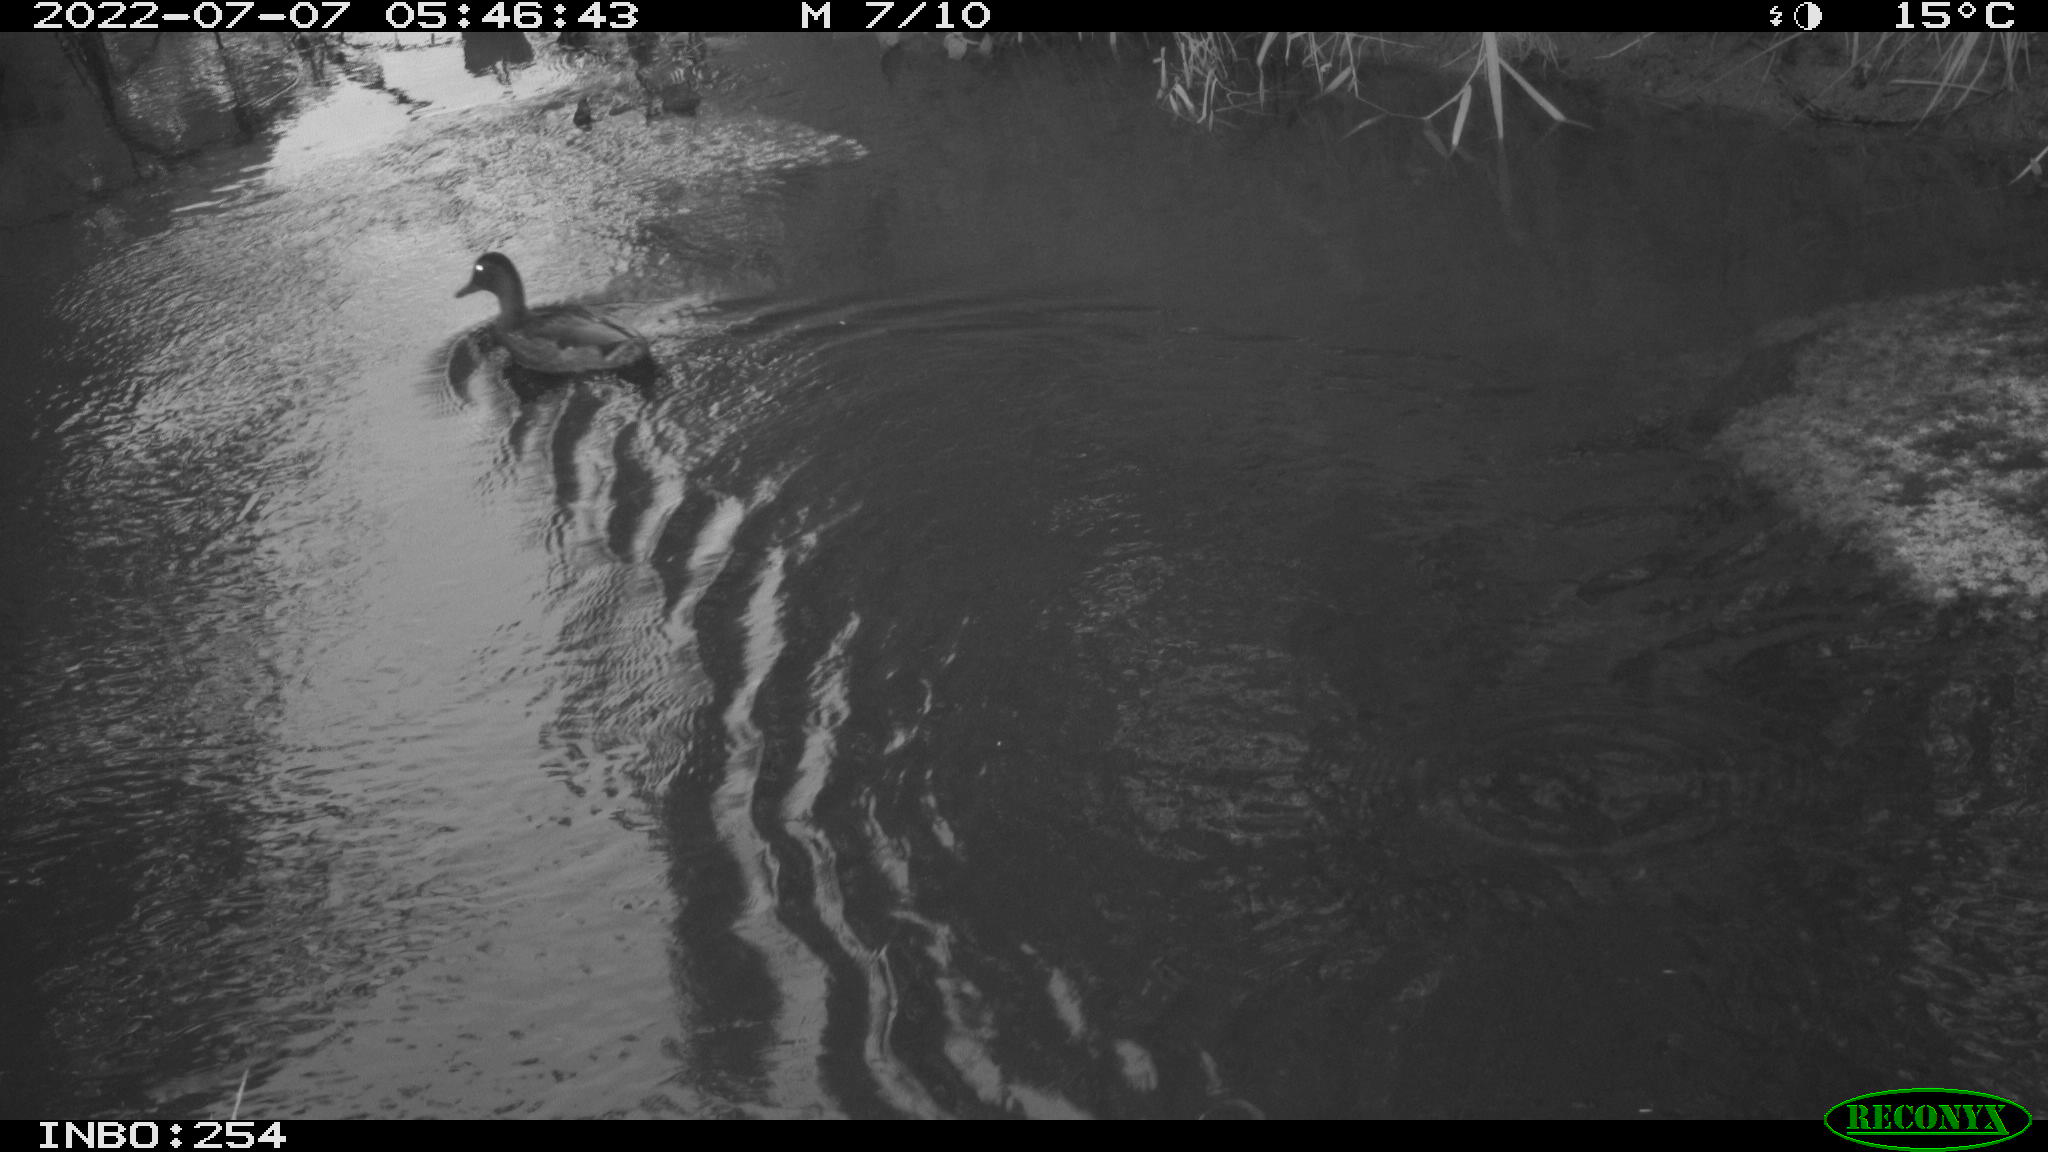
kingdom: Animalia
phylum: Chordata
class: Aves
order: Anseriformes
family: Anatidae
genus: Anas
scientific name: Anas platyrhynchos
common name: Mallard
